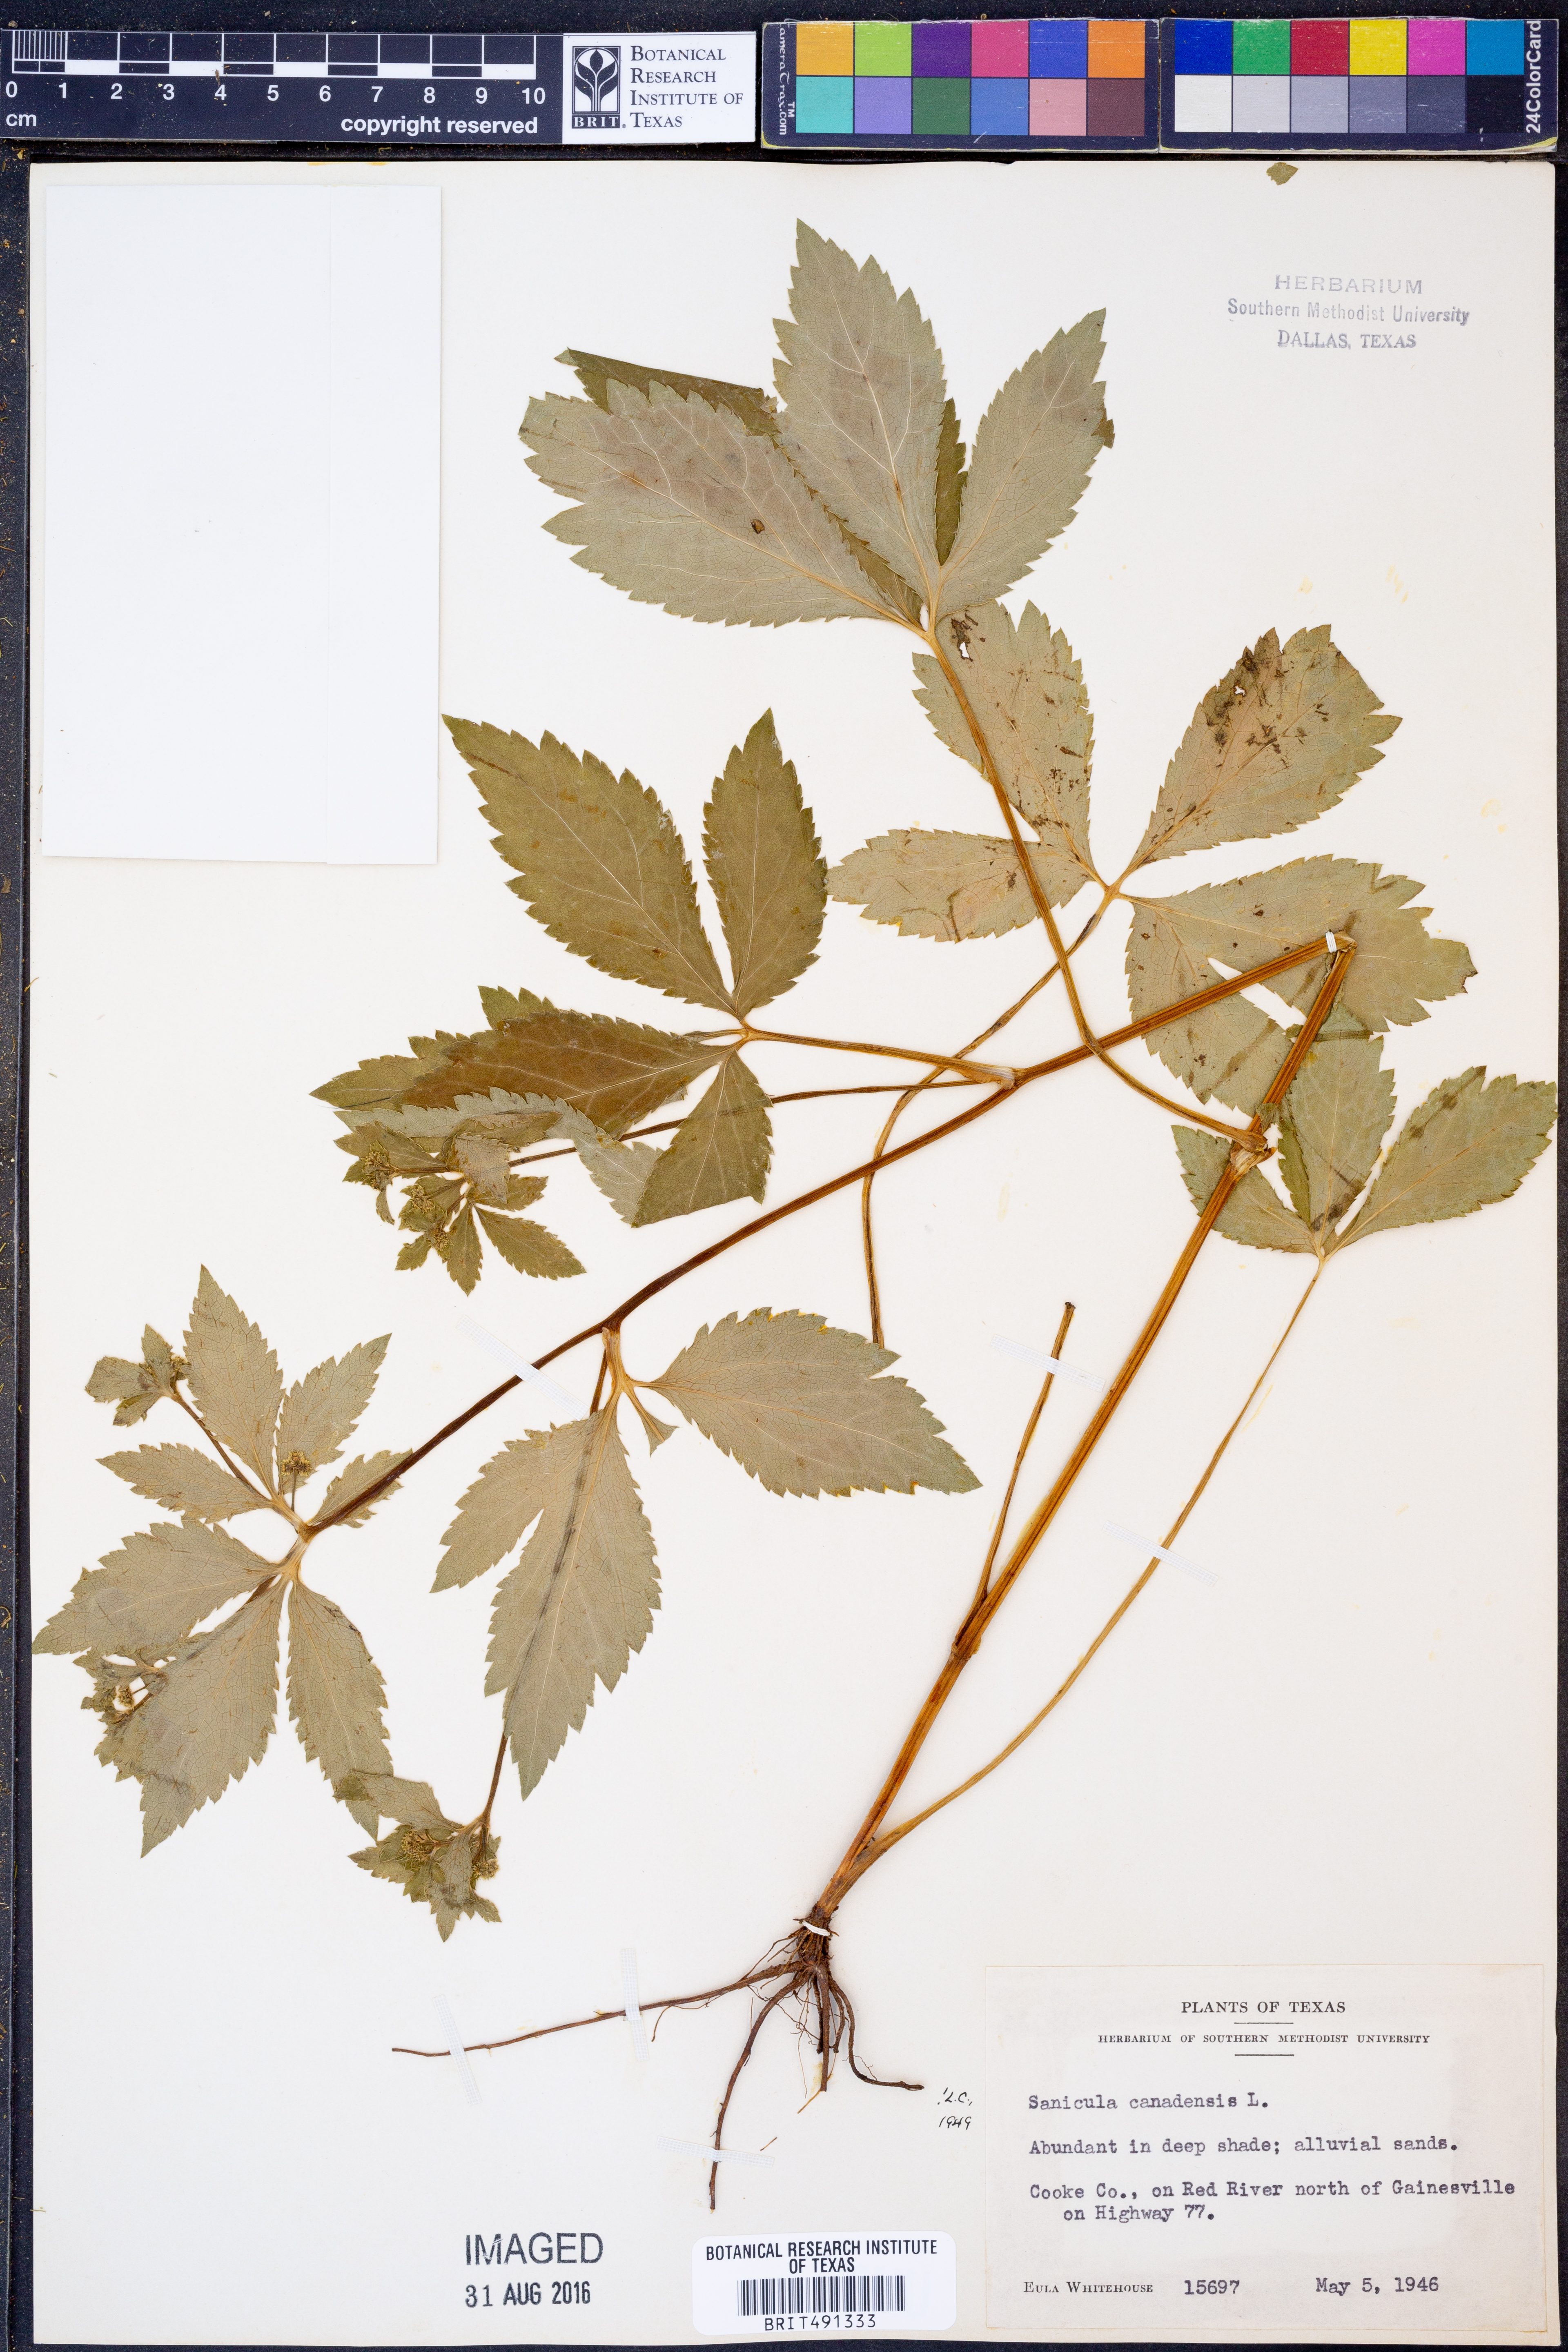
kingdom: Plantae
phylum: Tracheophyta
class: Magnoliopsida
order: Apiales
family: Apiaceae
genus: Sanicula
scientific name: Sanicula canadensis
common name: Canada sanicle
